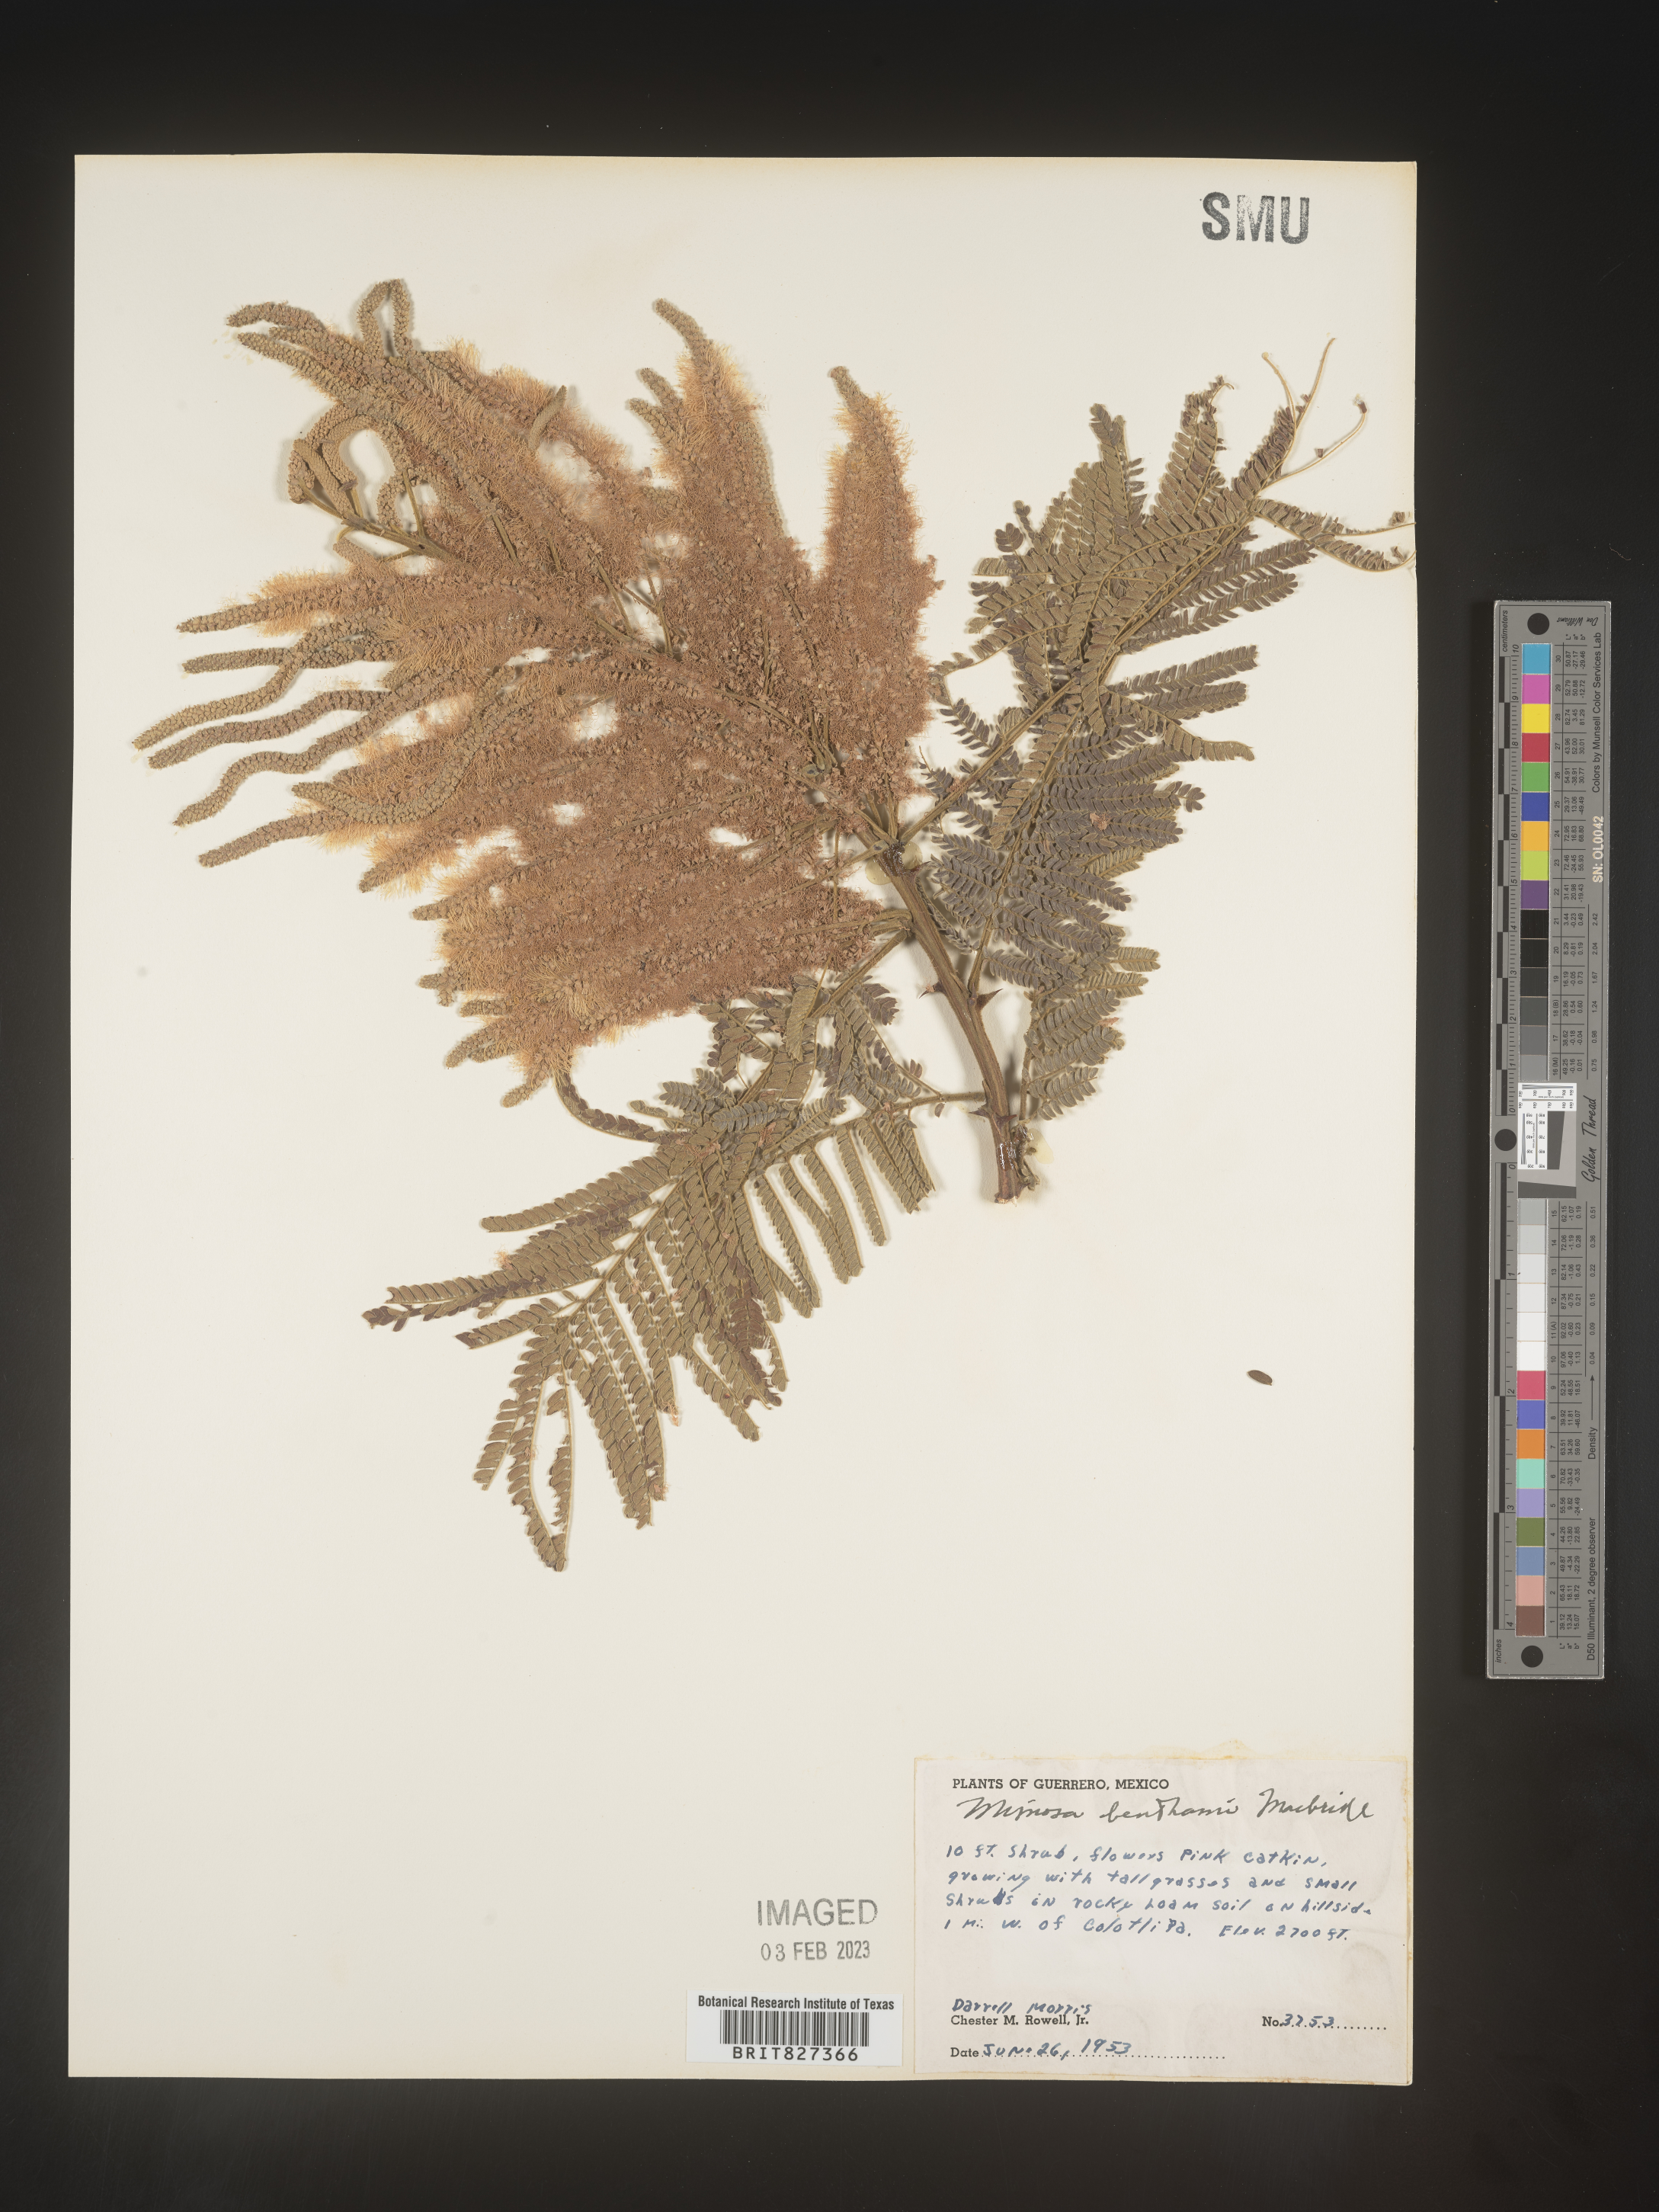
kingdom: Plantae
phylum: Tracheophyta
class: Magnoliopsida
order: Fabales
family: Fabaceae
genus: Mimosa
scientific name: Mimosa
